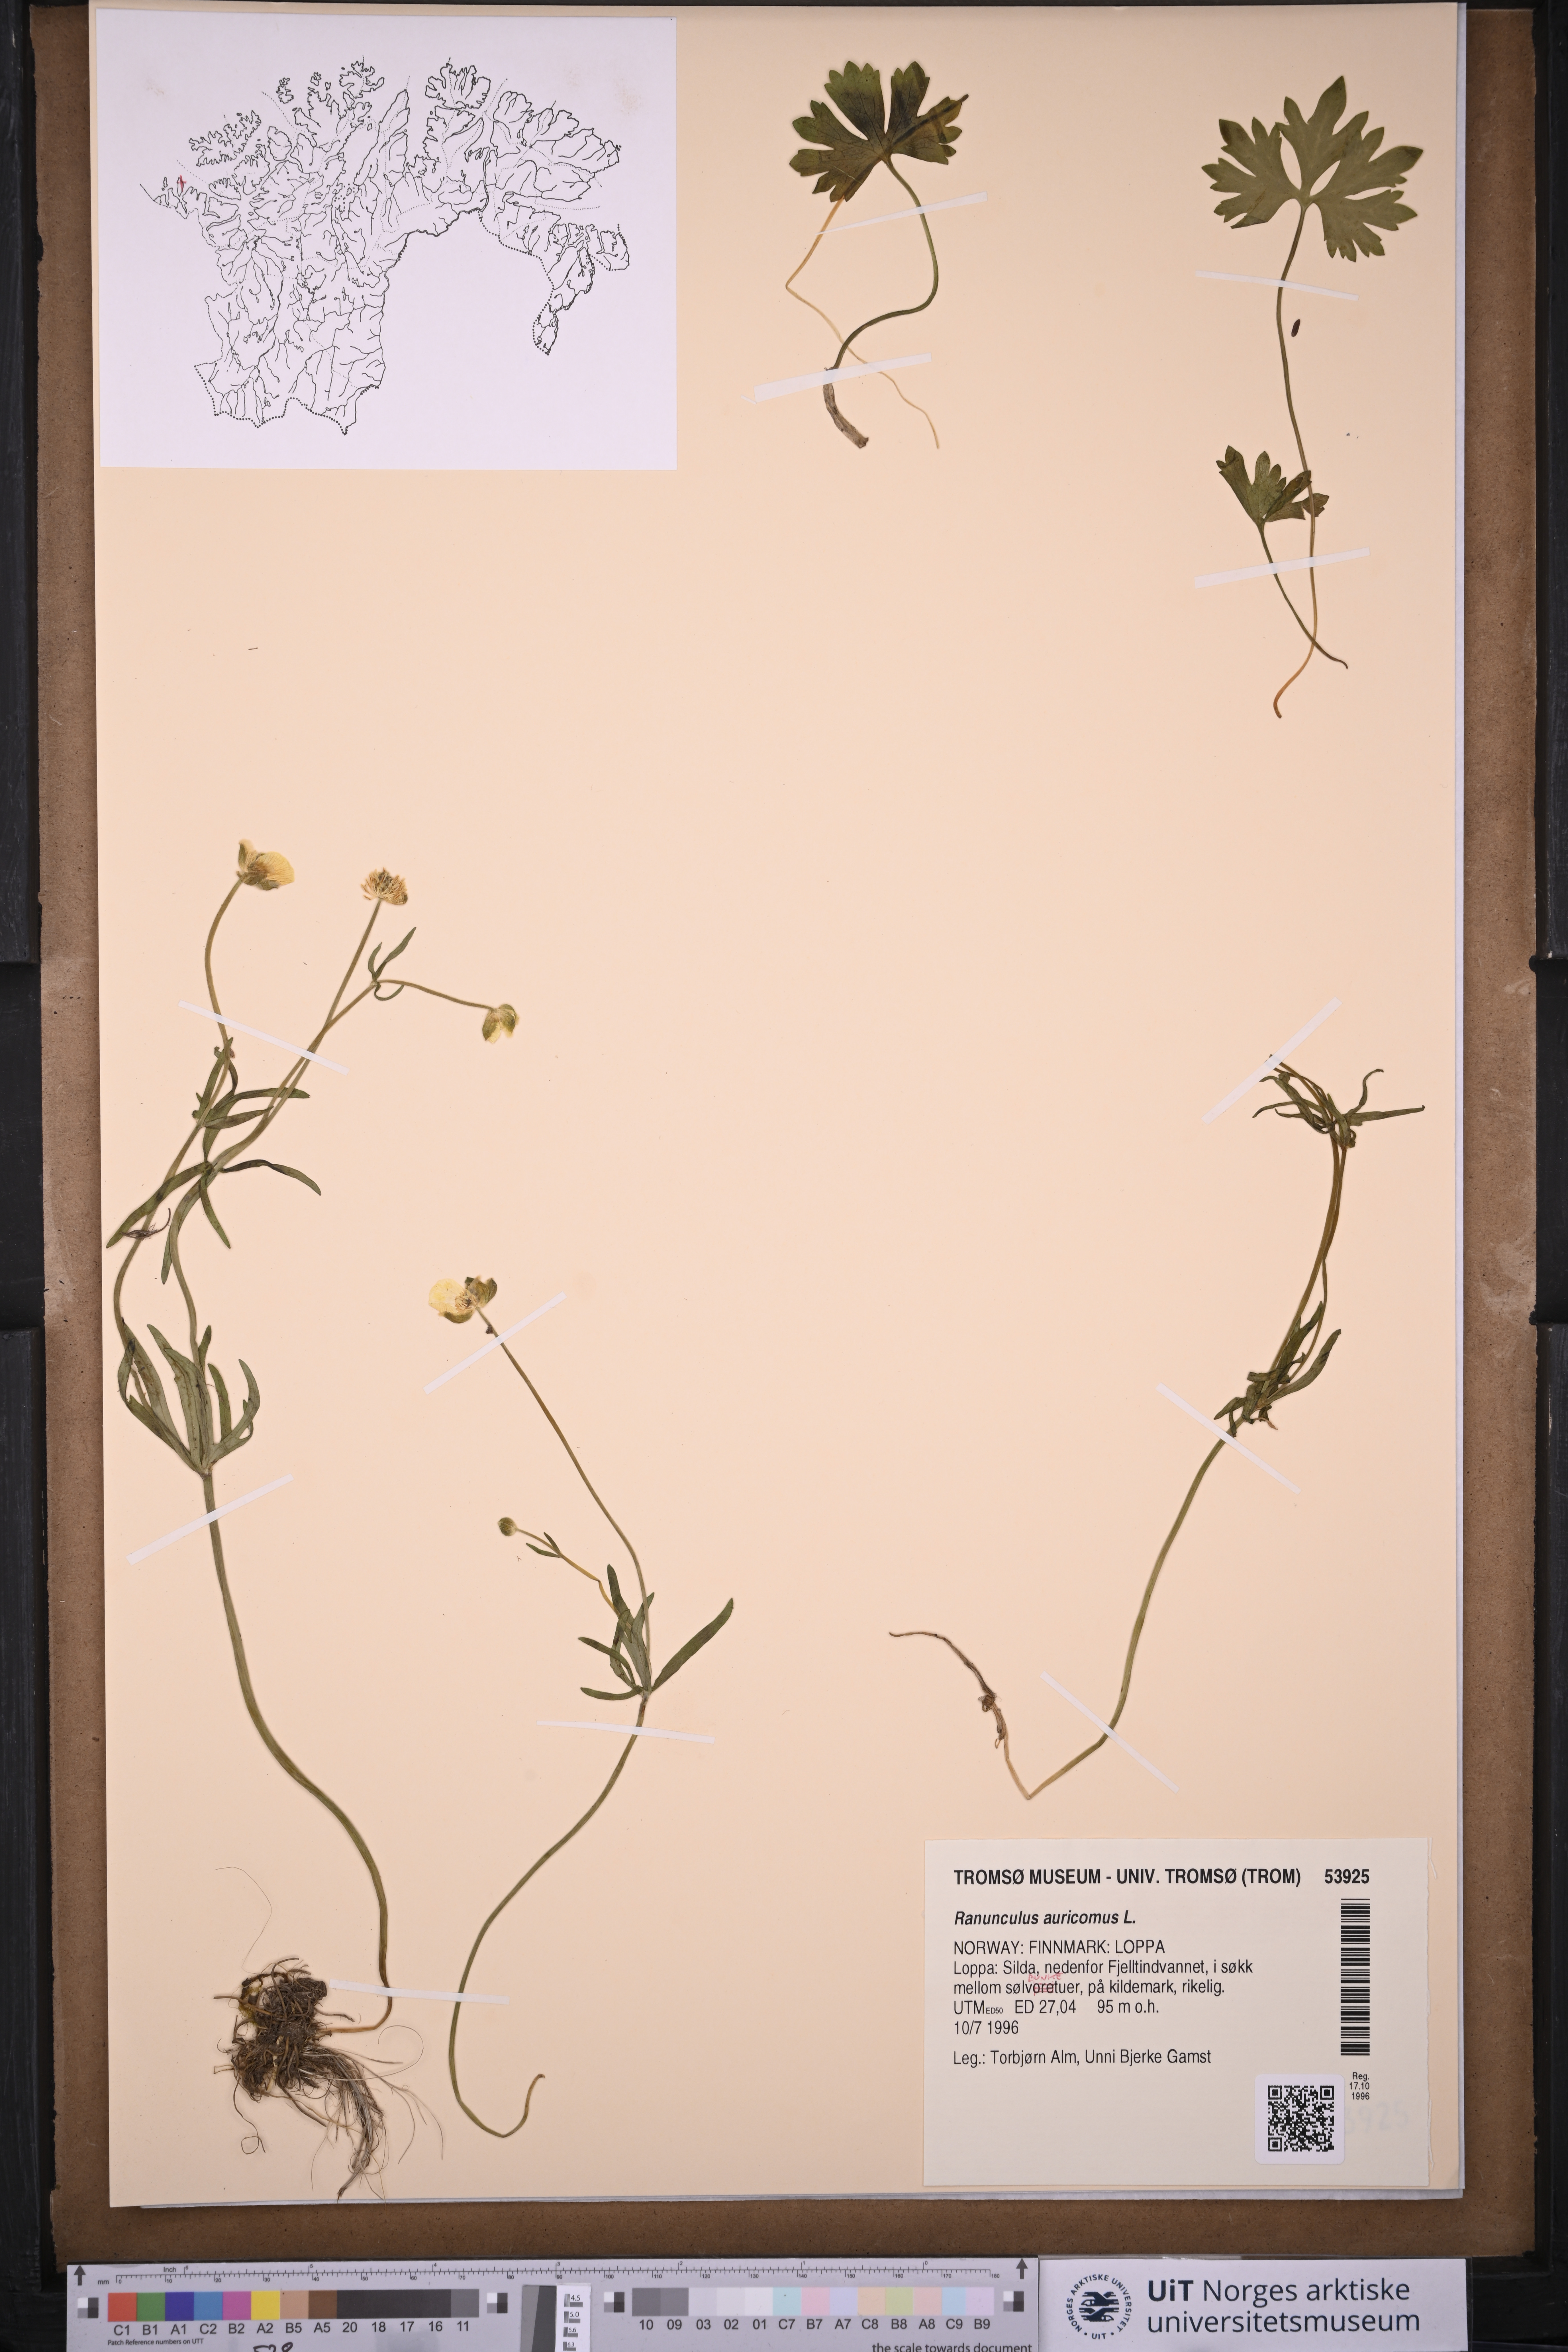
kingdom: Plantae
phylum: Tracheophyta
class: Magnoliopsida
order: Ranunculales
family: Ranunculaceae
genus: Ranunculus
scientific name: Ranunculus auricomus
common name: Goldilocks buttercup
